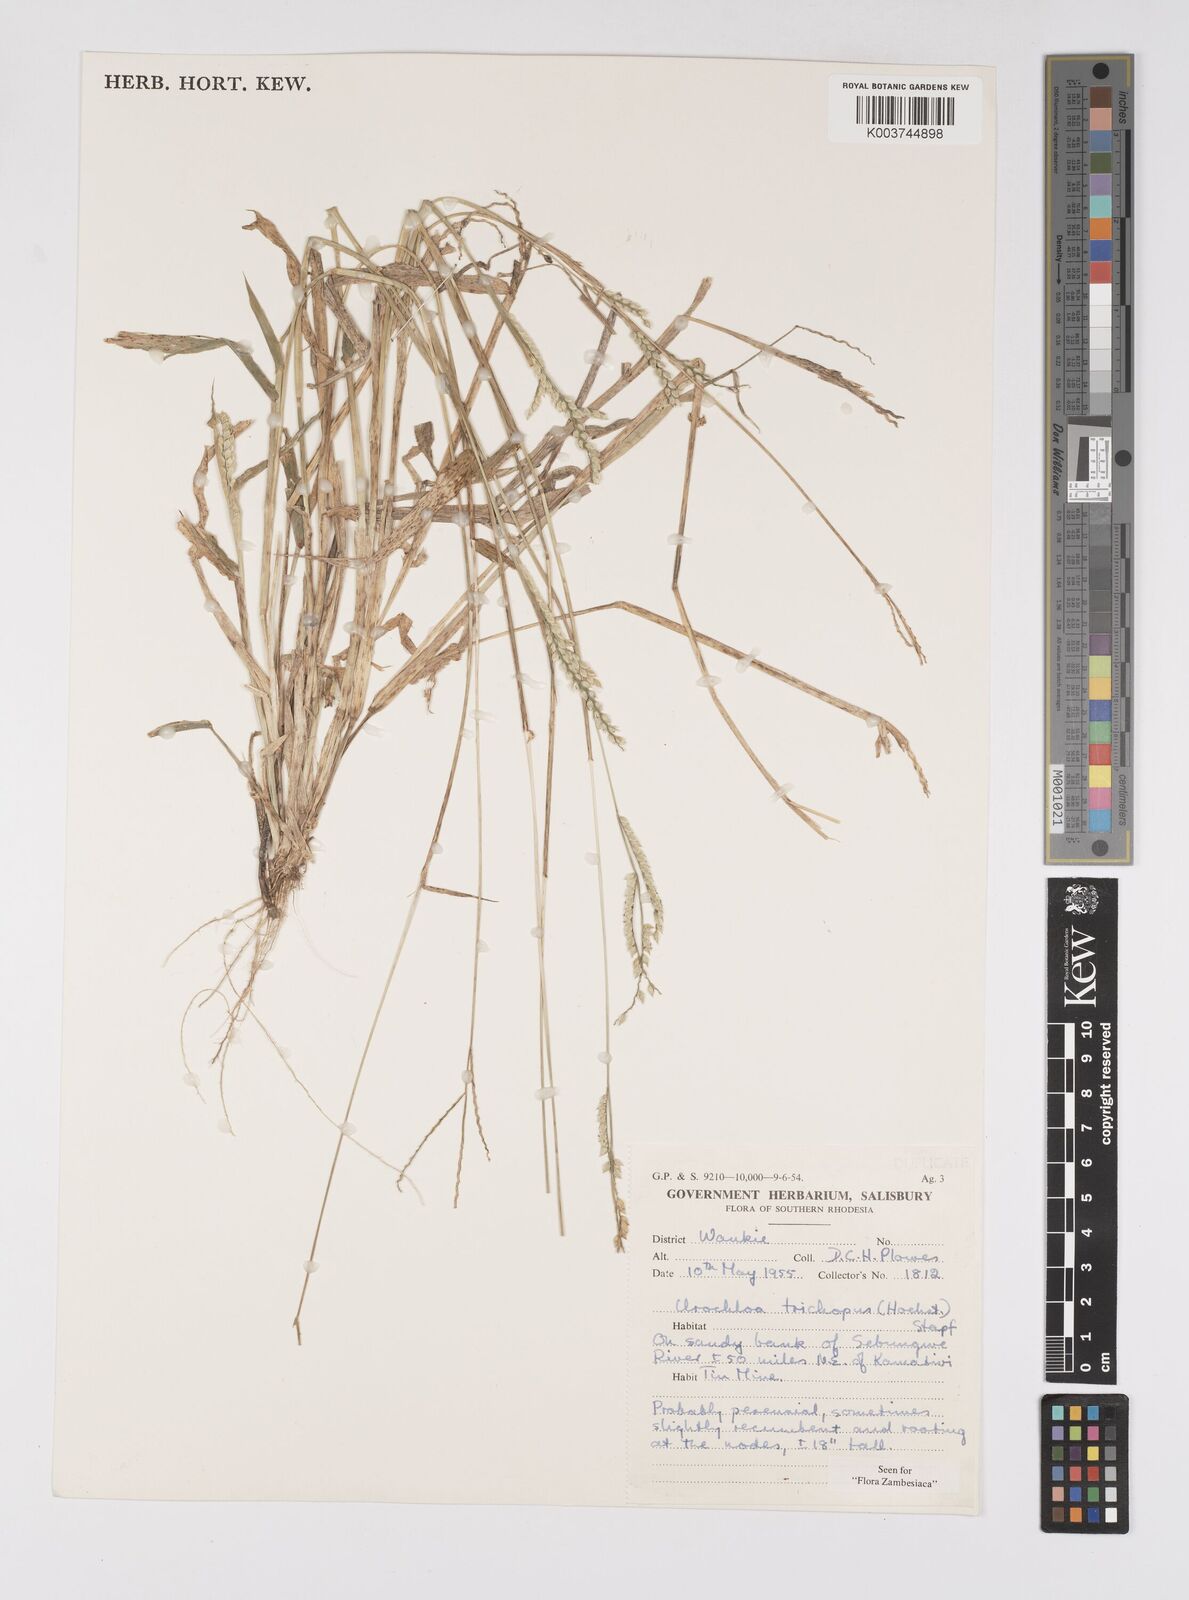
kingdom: Plantae
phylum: Tracheophyta
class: Liliopsida
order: Poales
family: Poaceae
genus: Urochloa
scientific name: Urochloa trichopus
